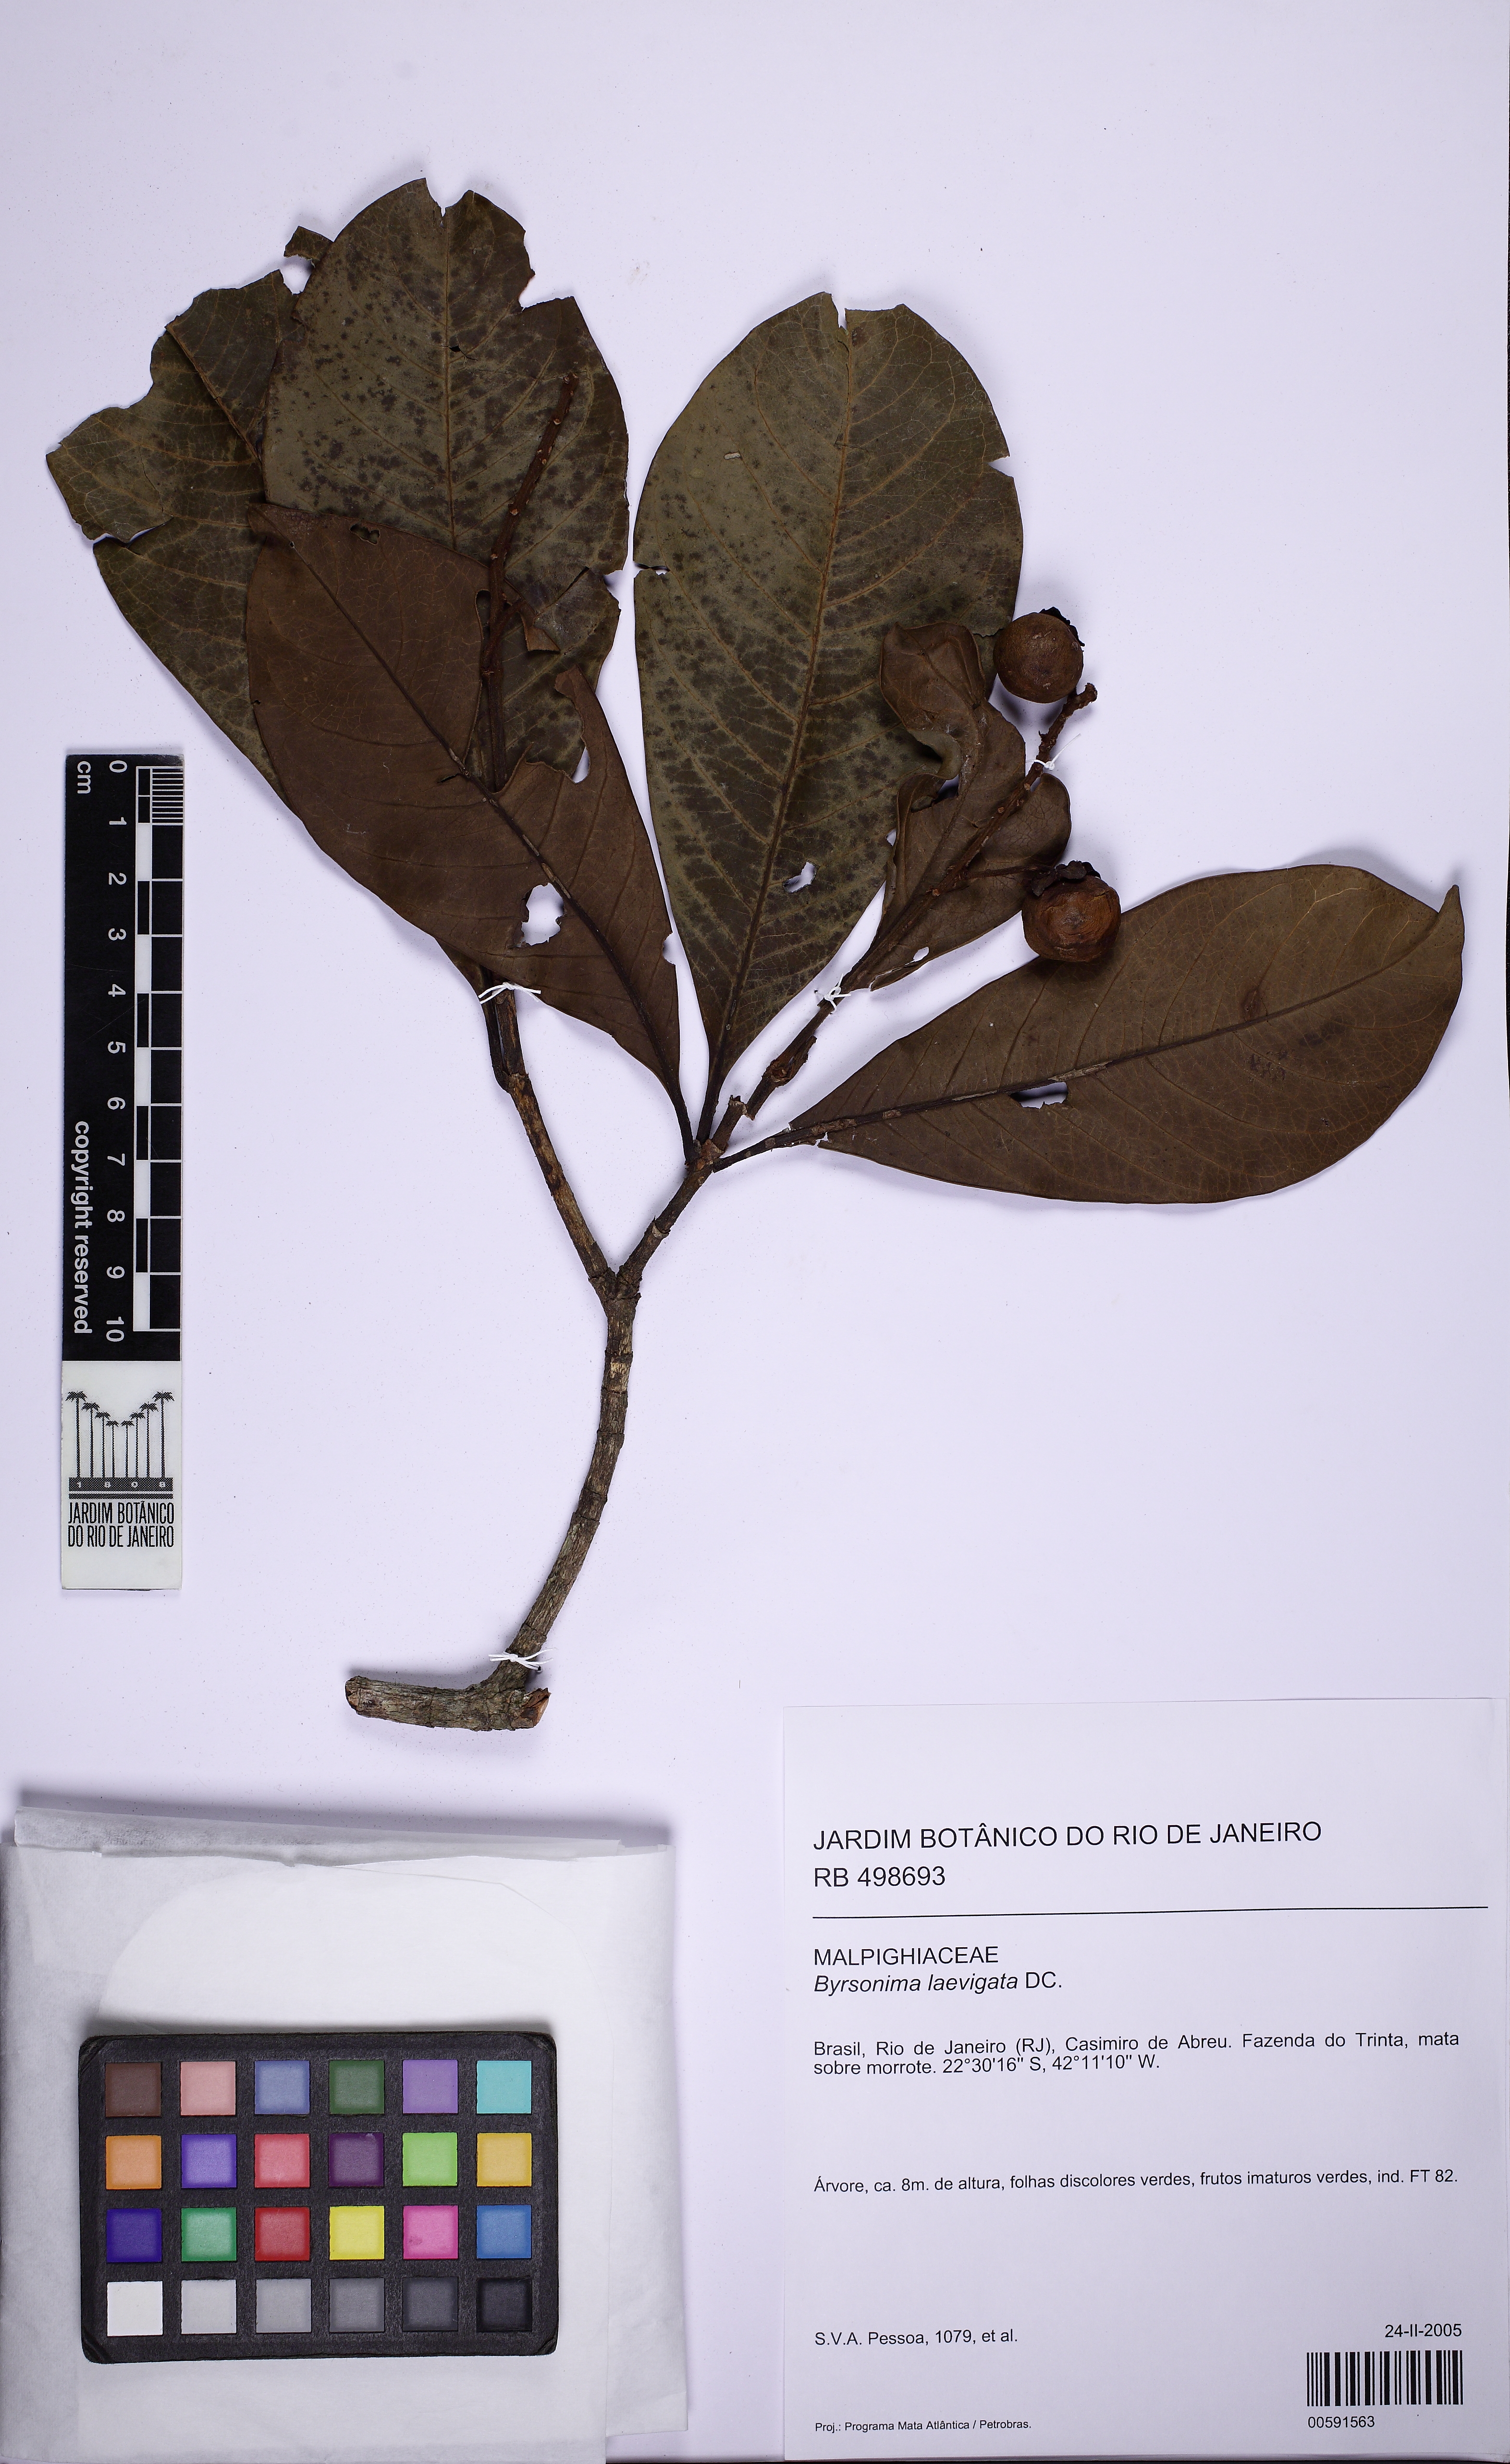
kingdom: Plantae
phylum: Tracheophyta
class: Magnoliopsida
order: Malpighiales
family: Malpighiaceae
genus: Byrsonima
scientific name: Byrsonima laevigata
